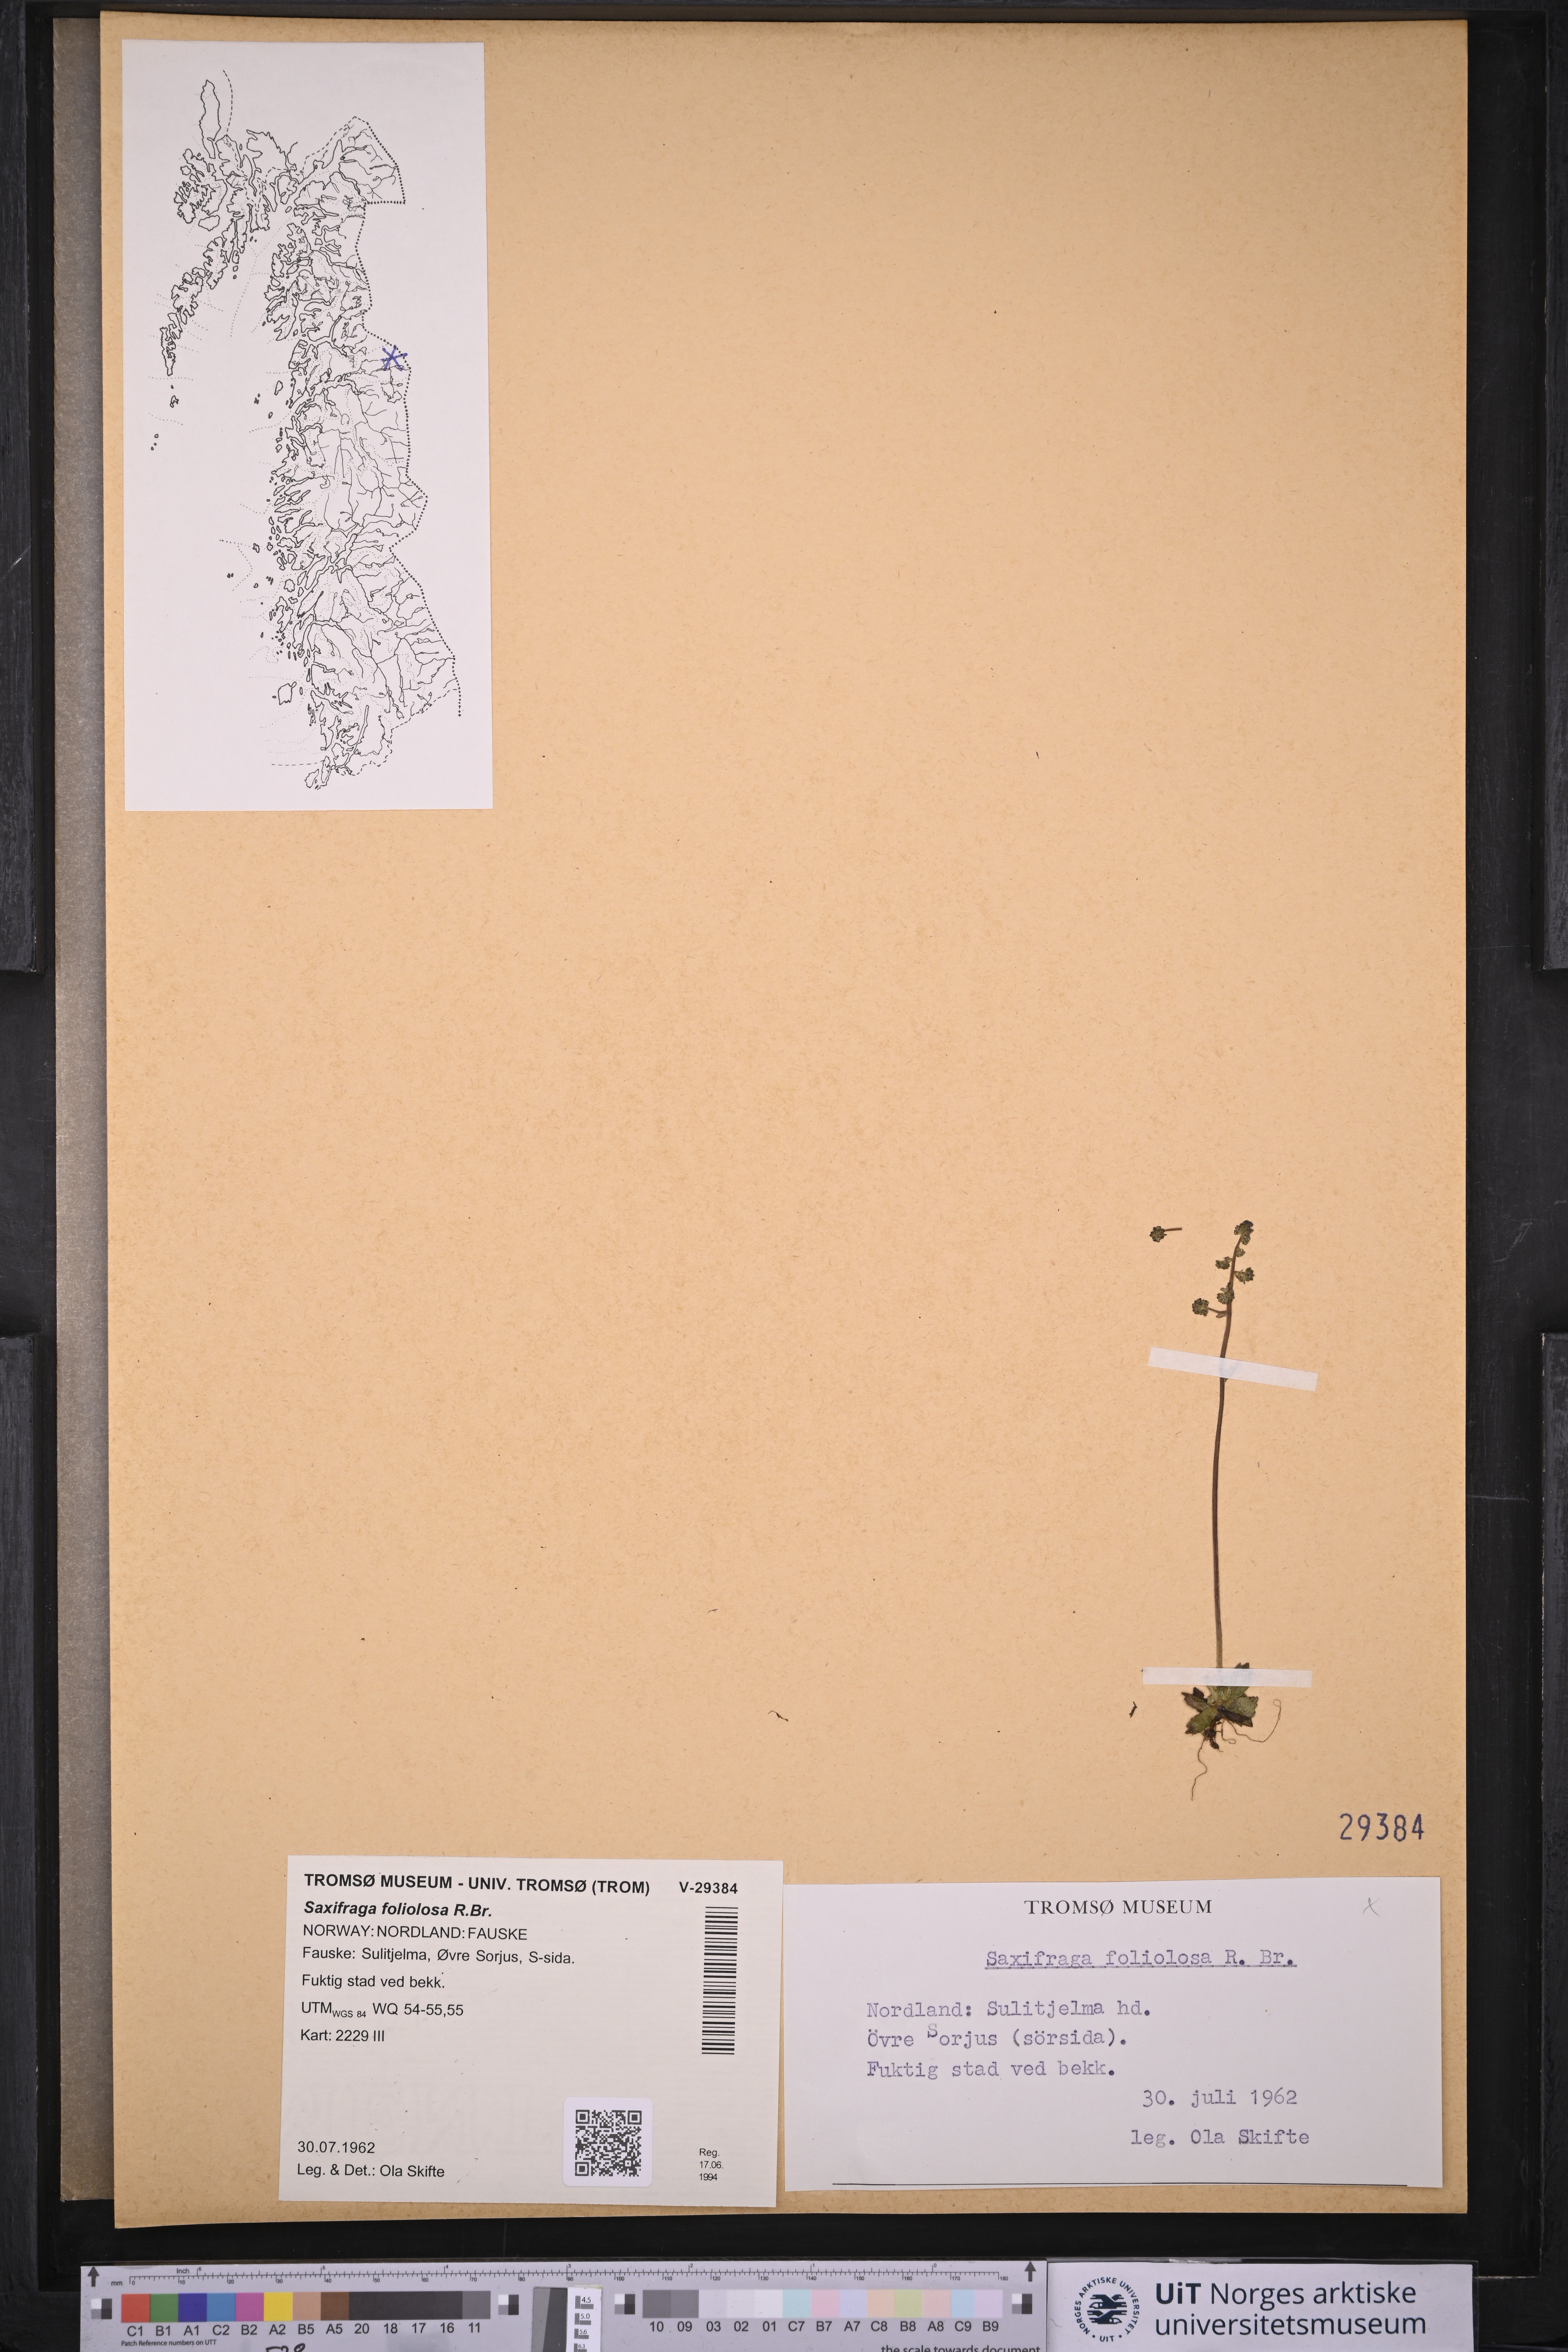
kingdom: Plantae
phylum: Tracheophyta
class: Magnoliopsida
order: Saxifragales
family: Saxifragaceae
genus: Micranthes
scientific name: Micranthes foliolosa
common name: Leafystem saxifrage
